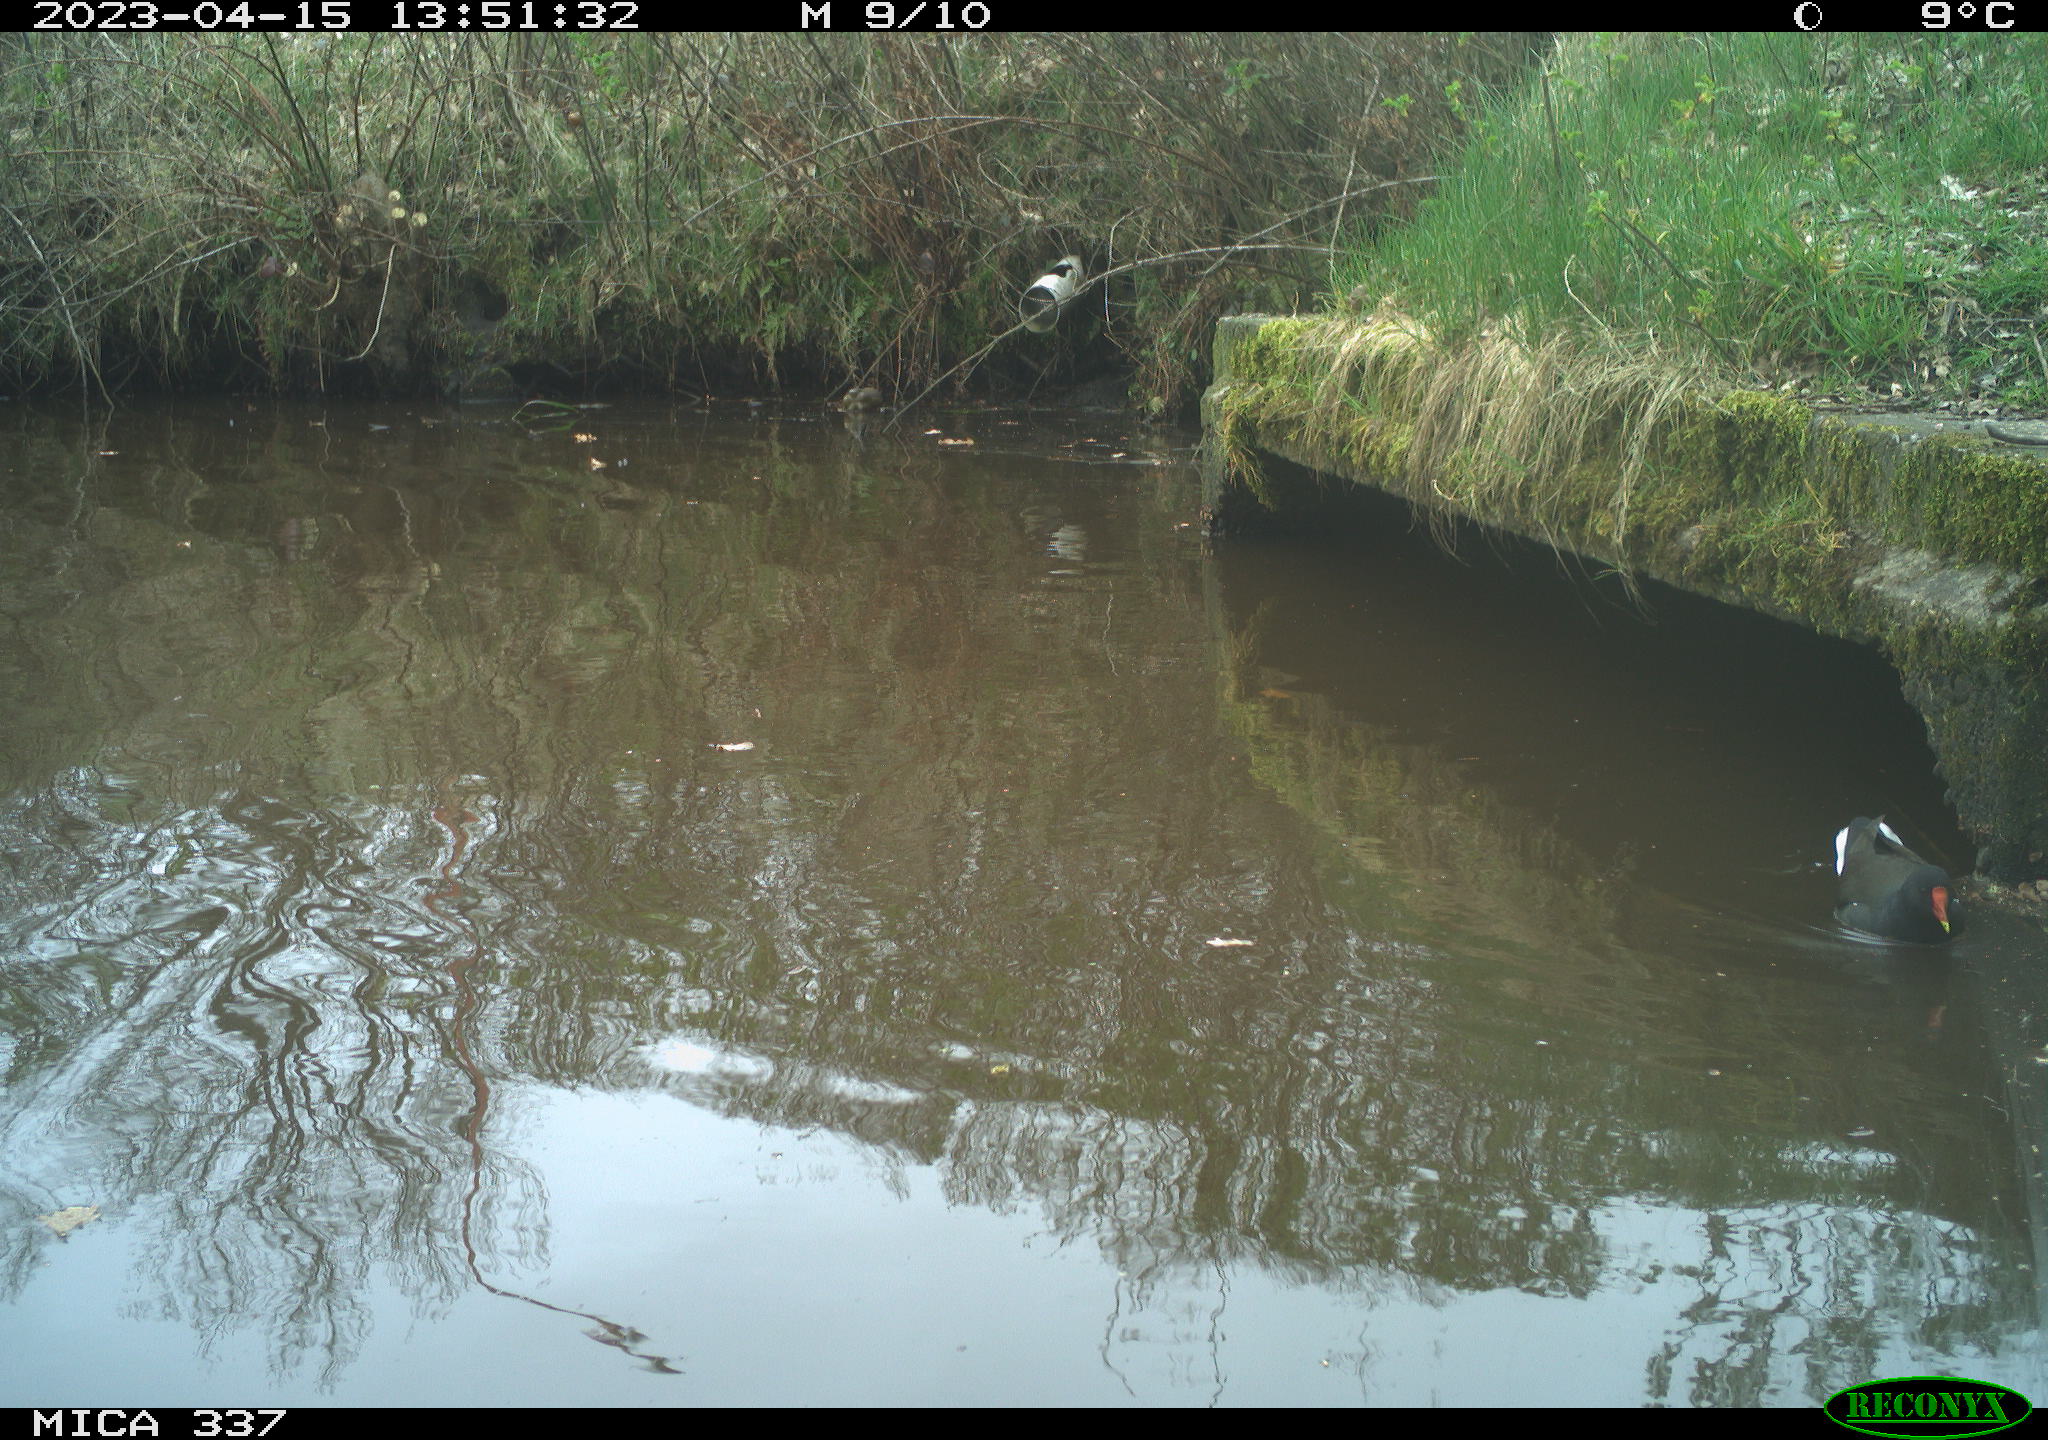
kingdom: Animalia
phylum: Chordata
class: Aves
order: Gruiformes
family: Rallidae
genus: Gallinula
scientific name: Gallinula chloropus
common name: Common moorhen
